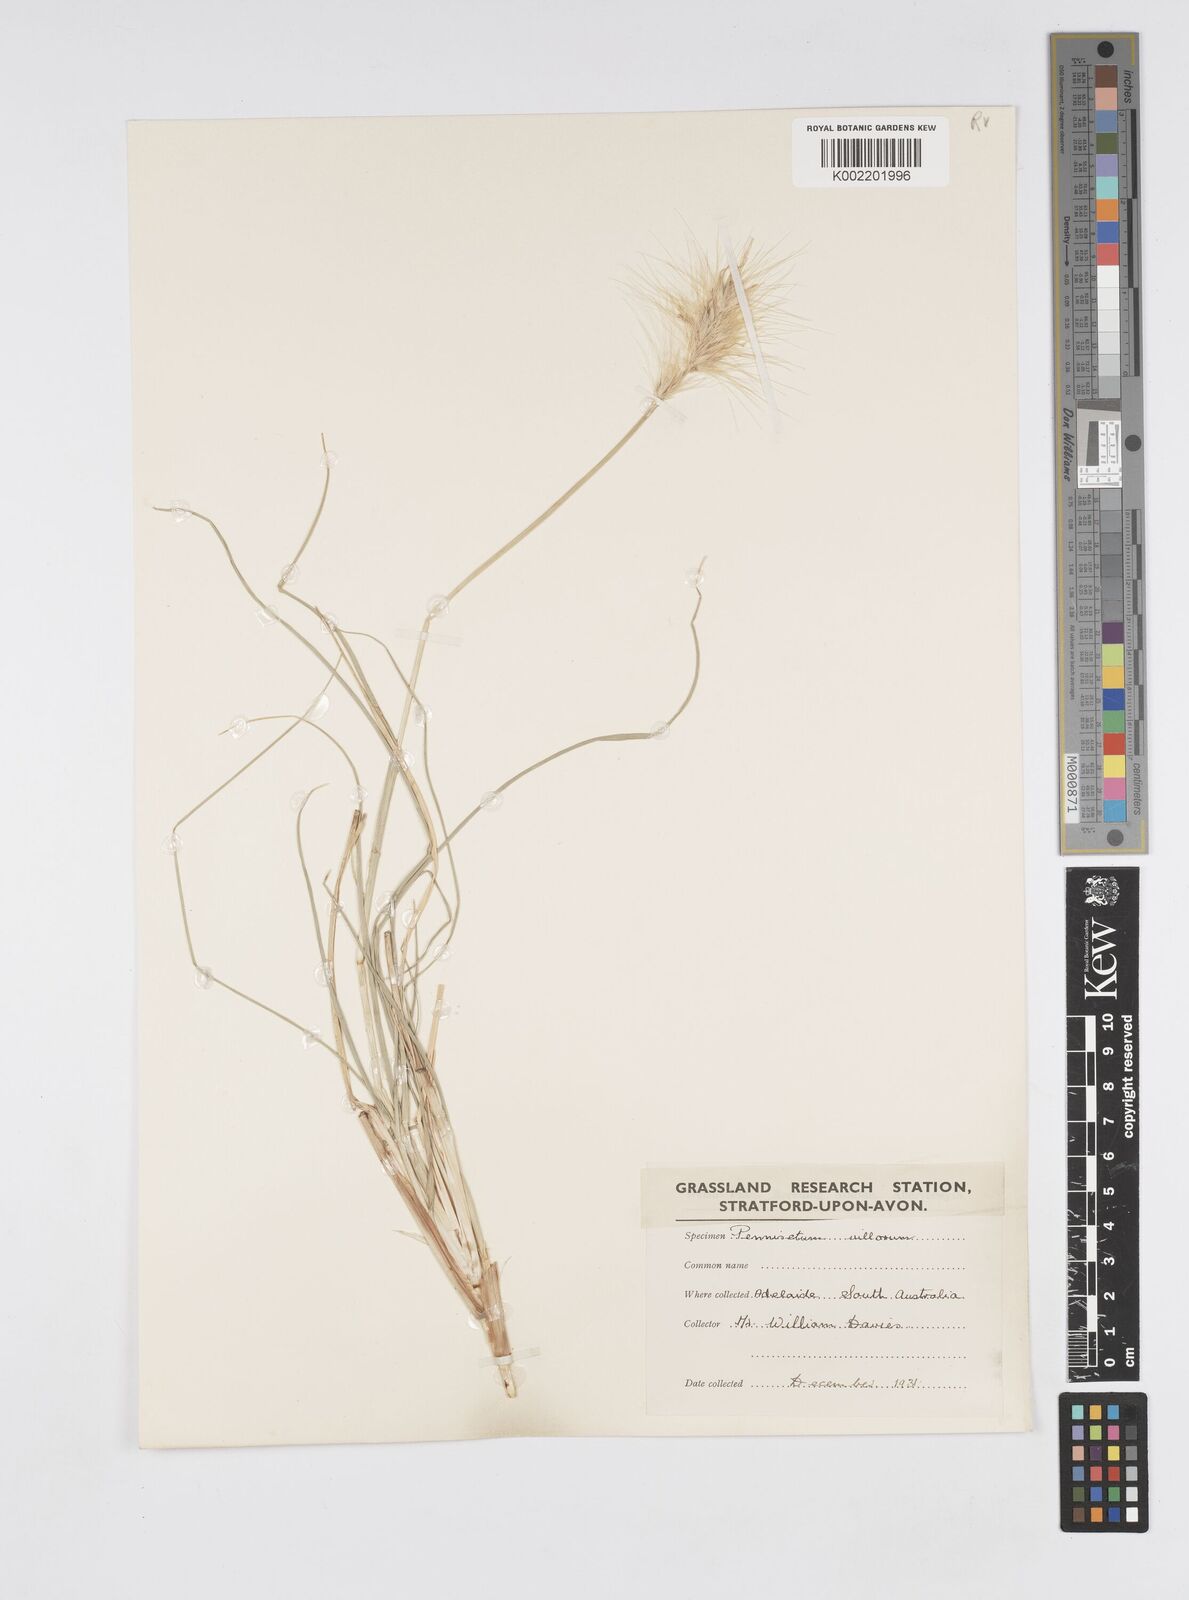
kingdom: Plantae
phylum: Tracheophyta
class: Liliopsida
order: Poales
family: Poaceae
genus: Cenchrus
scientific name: Cenchrus longisetus
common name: Feathertop
